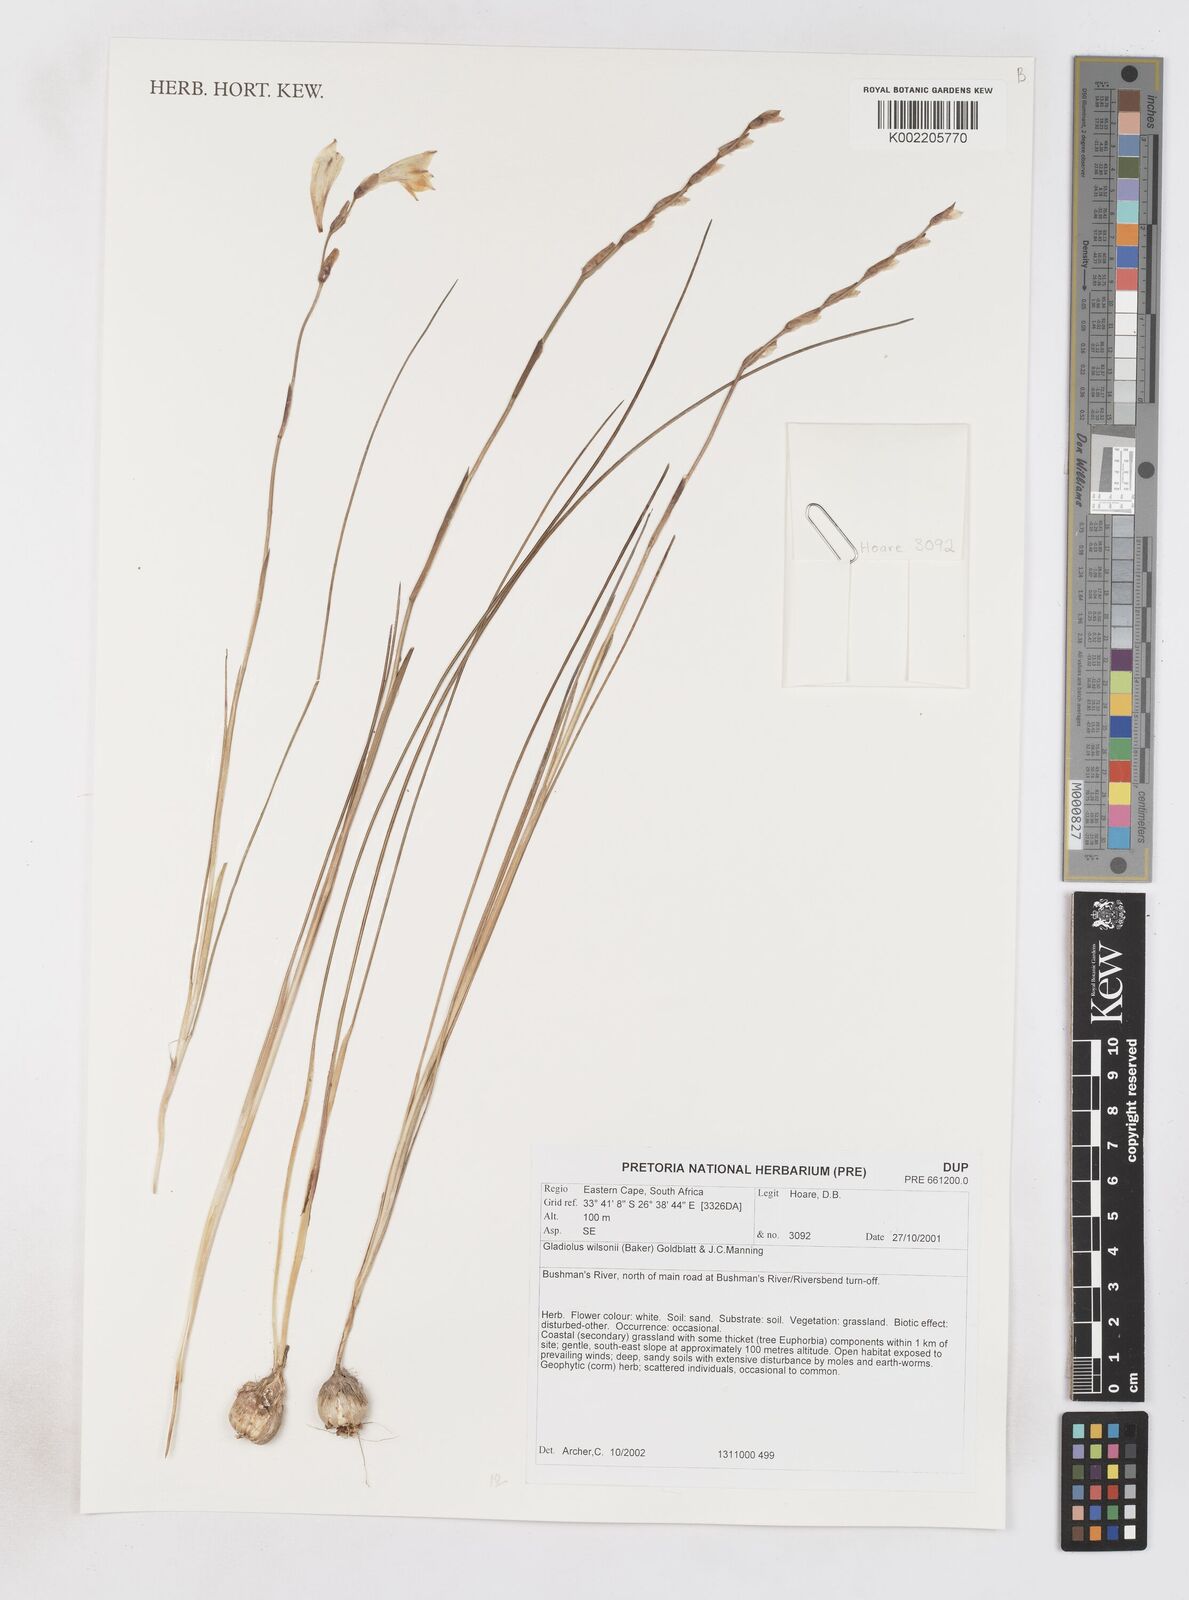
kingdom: Plantae
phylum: Tracheophyta
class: Liliopsida
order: Asparagales
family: Iridaceae
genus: Gladiolus
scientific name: Gladiolus wilsonii
